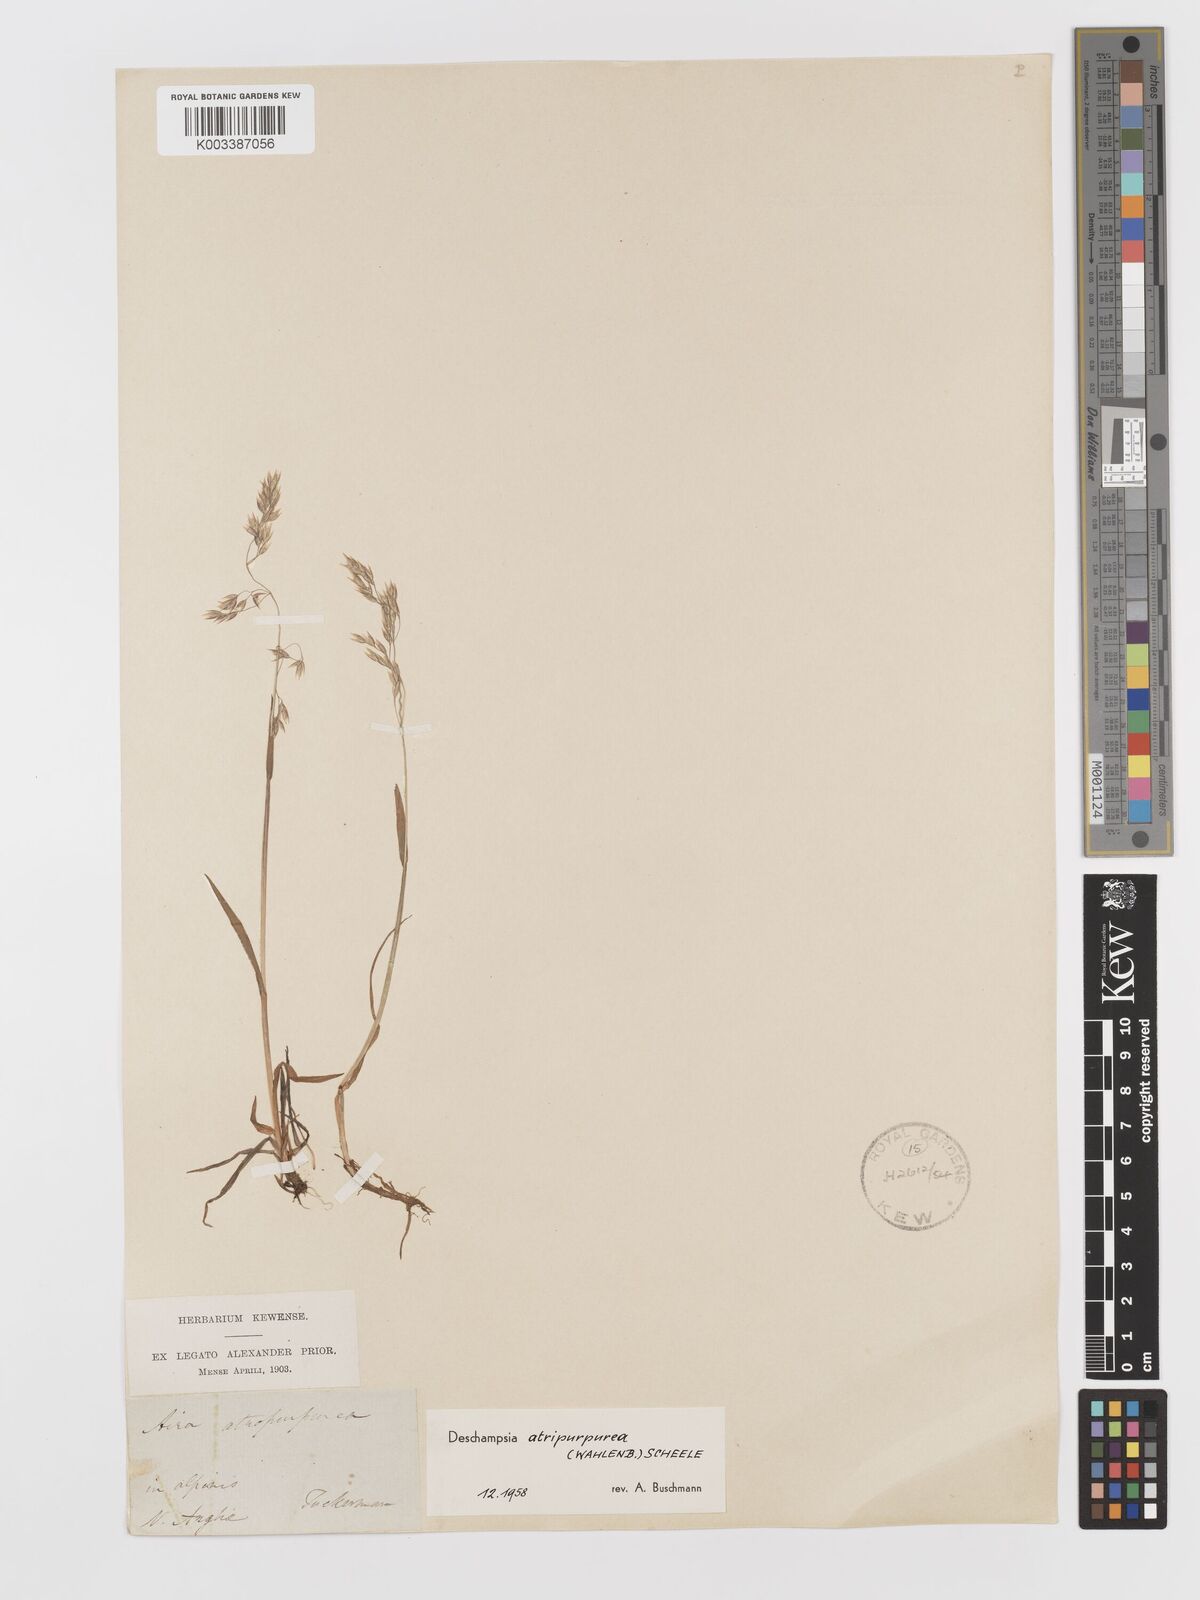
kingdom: Plantae
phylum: Tracheophyta
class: Liliopsida
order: Poales
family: Poaceae
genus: Vahlodea
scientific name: Vahlodea atropurpurea
